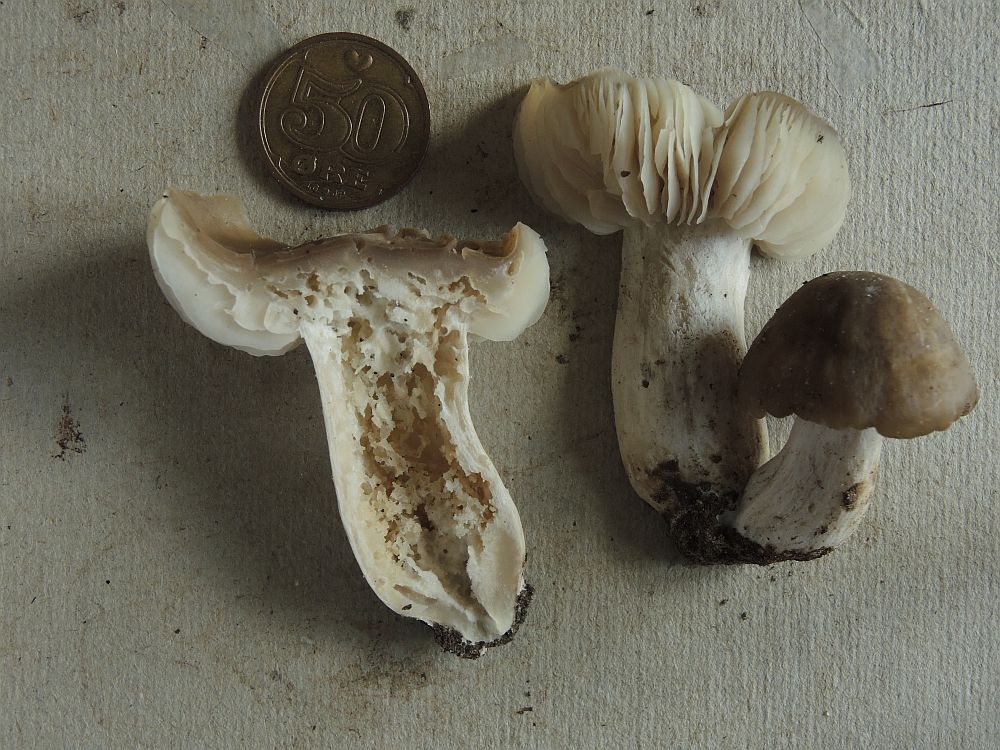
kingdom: Fungi
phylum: Basidiomycota
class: Agaricomycetes
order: Agaricales
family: Entolomataceae
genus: Entoloma
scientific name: Entoloma lividoalbum
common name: lysstokket rødblad
